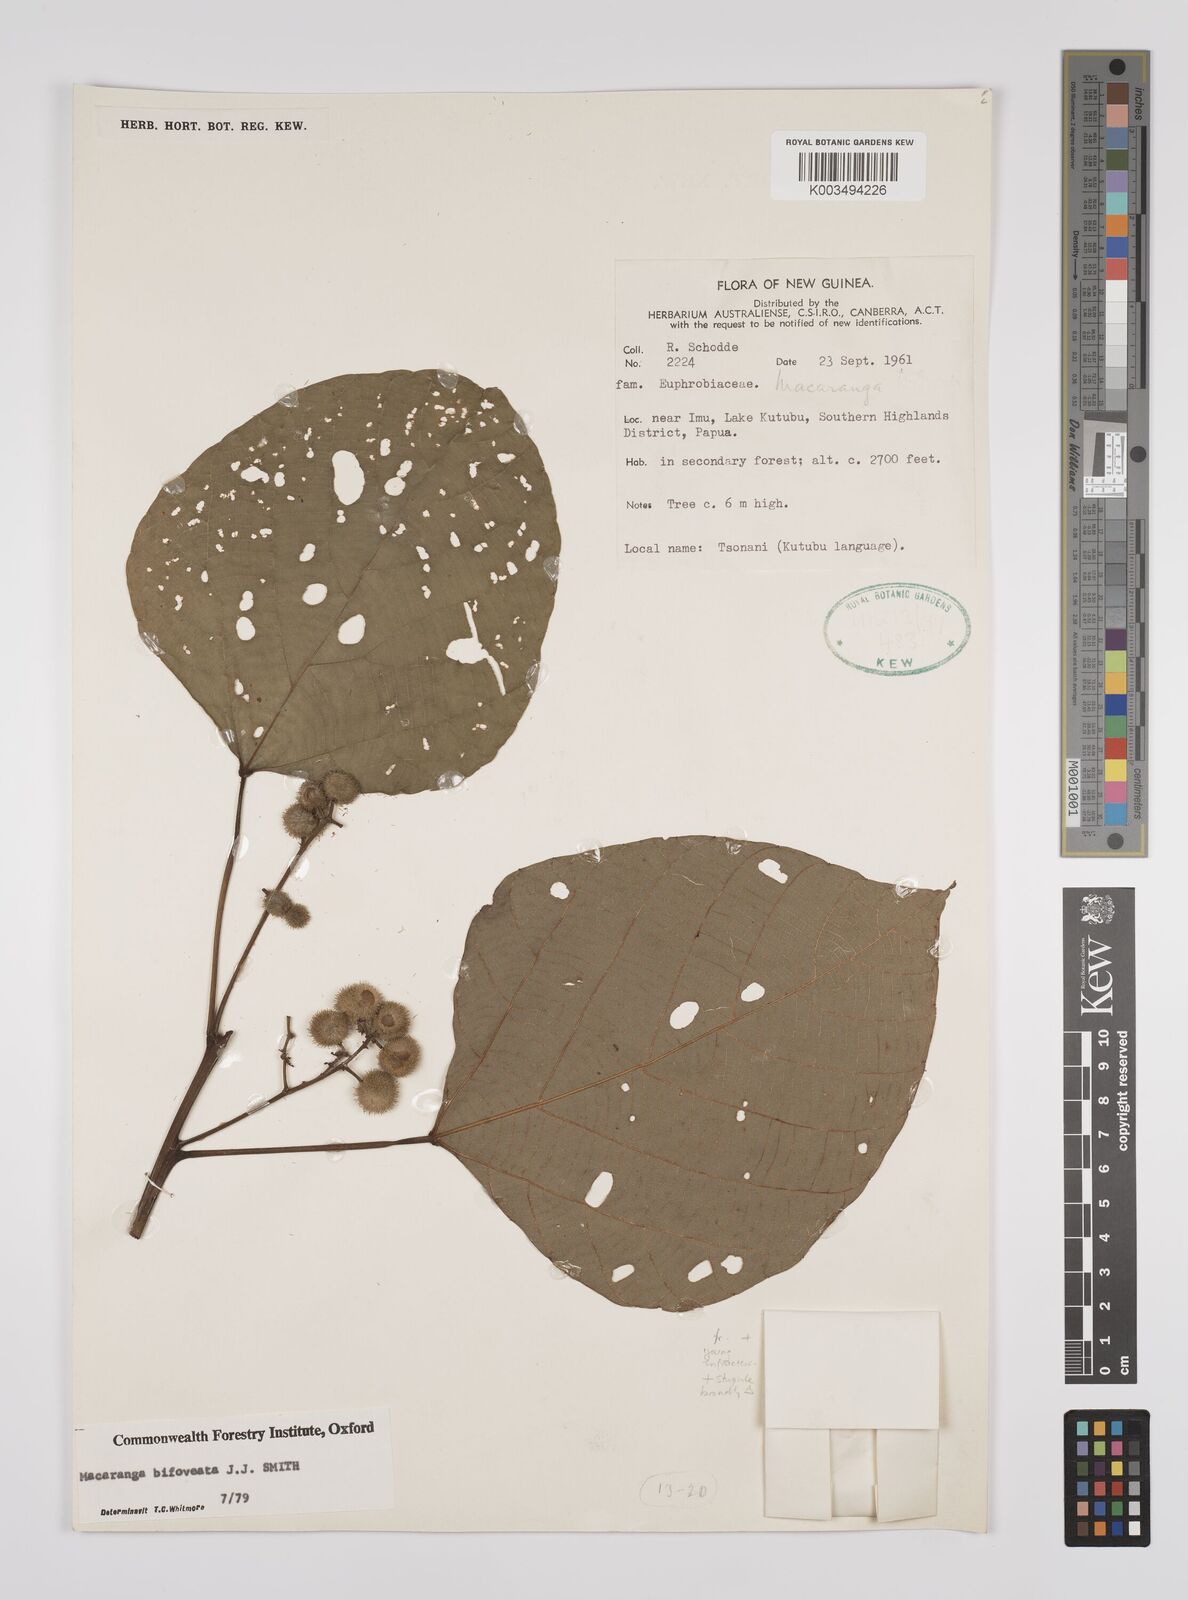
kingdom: Plantae
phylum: Tracheophyta
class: Magnoliopsida
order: Malpighiales
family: Euphorbiaceae
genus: Macaranga
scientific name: Macaranga bifoveata
